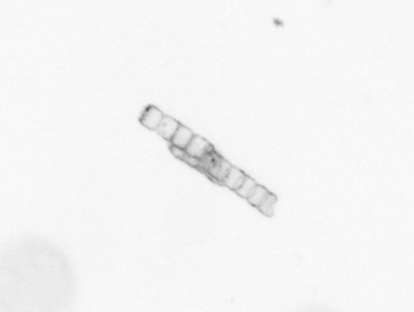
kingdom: Chromista
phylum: Ochrophyta
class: Bacillariophyceae
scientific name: Bacillariophyceae
